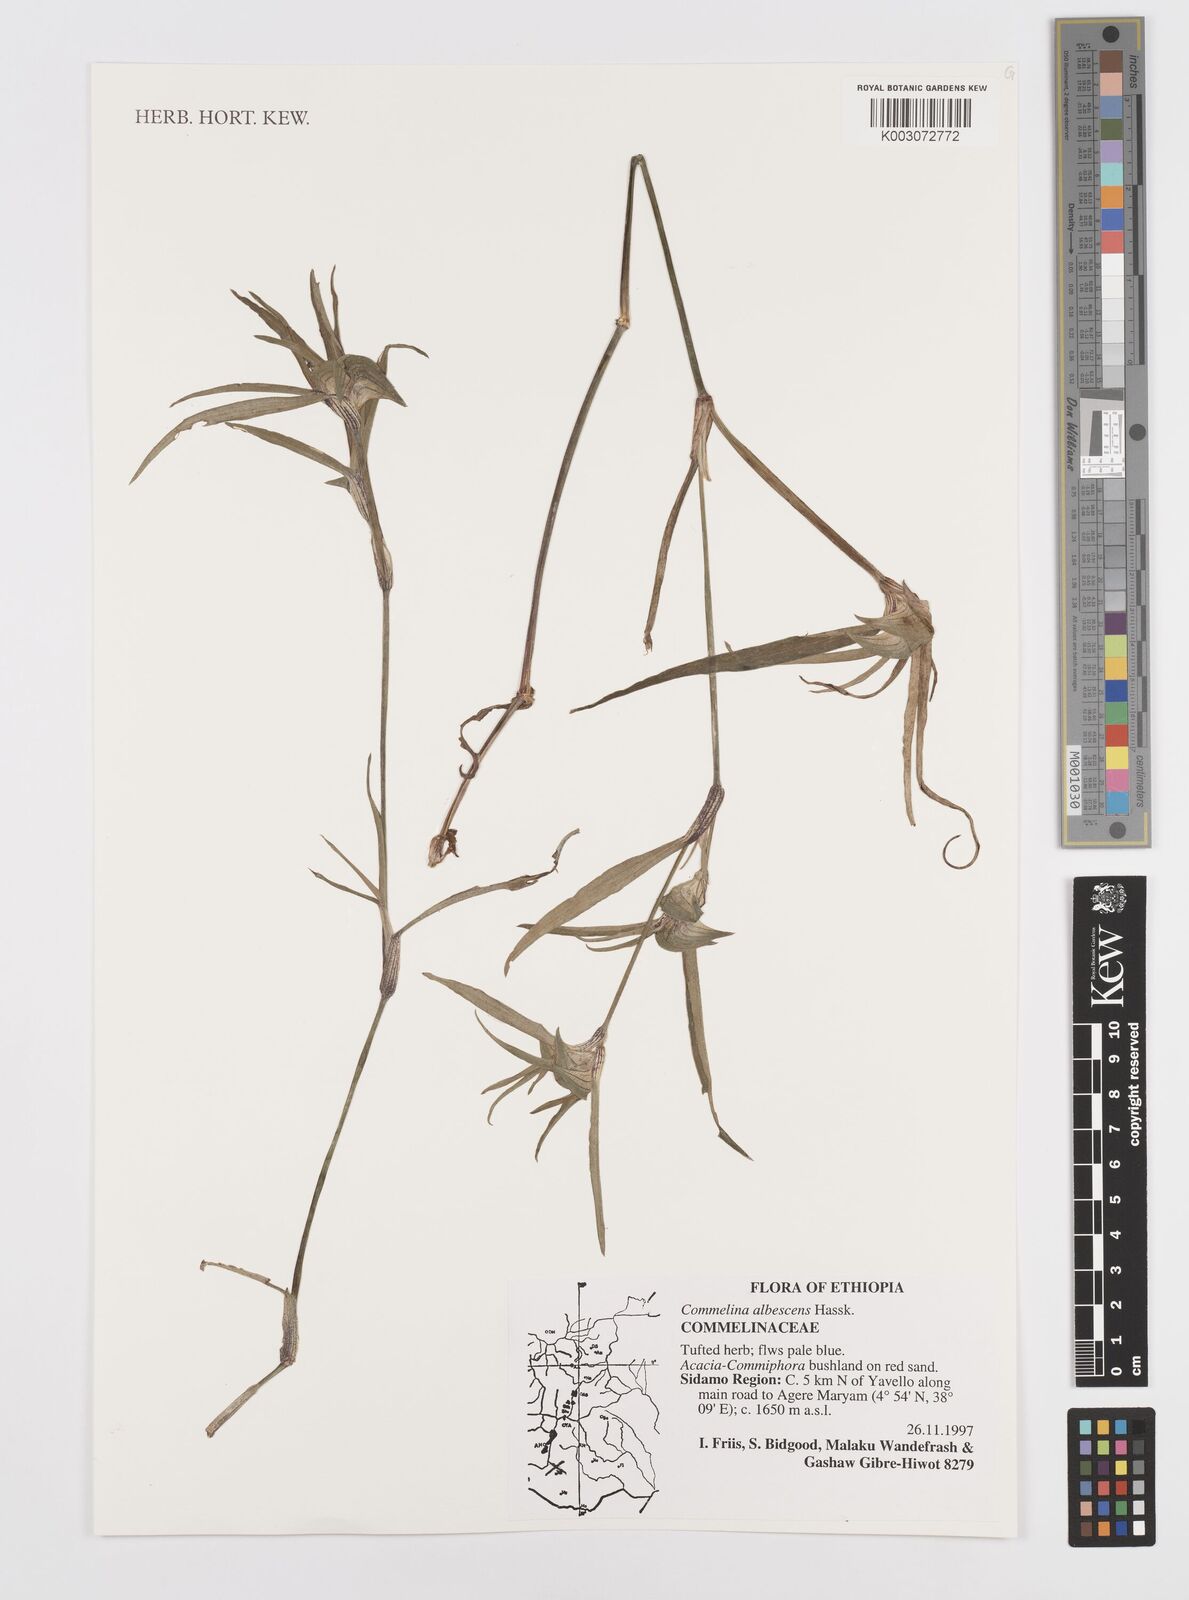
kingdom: Plantae
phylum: Tracheophyta
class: Liliopsida
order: Commelinales
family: Commelinaceae
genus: Commelina
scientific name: Commelina albescens
